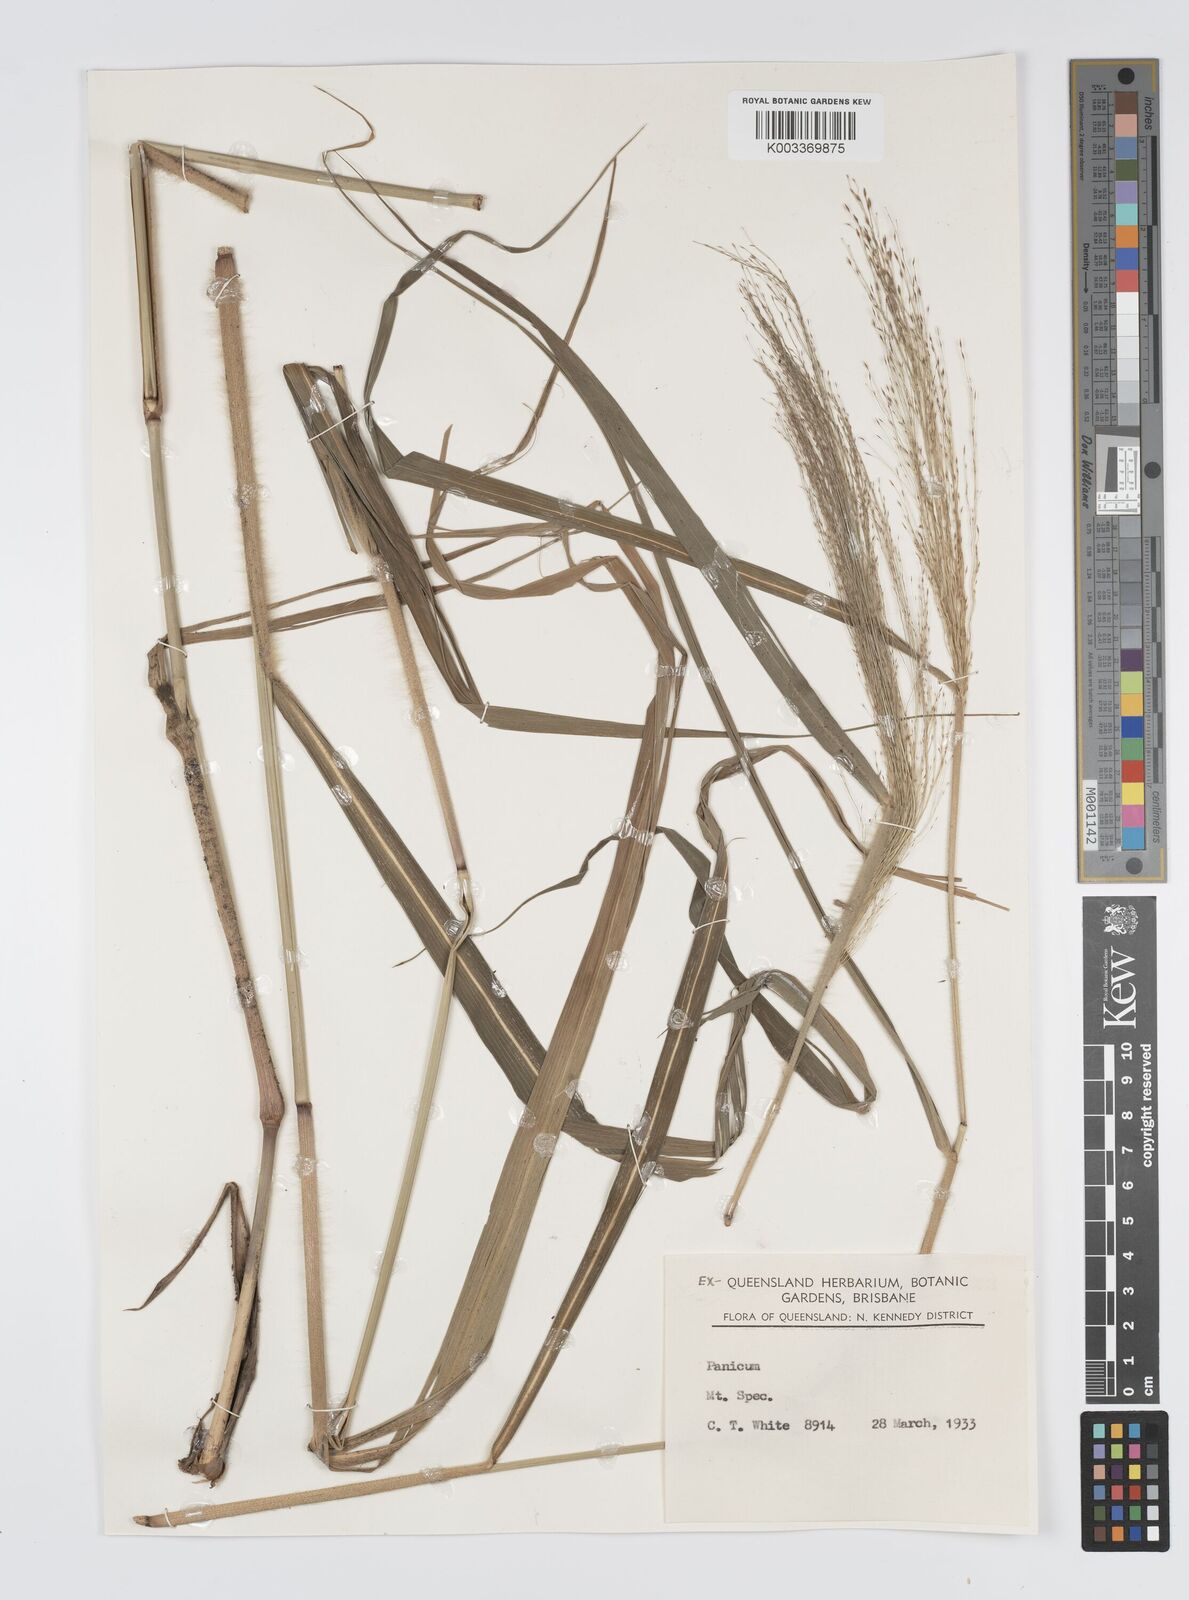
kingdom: Plantae
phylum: Tracheophyta
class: Liliopsida
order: Poales
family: Poaceae
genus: Panicum
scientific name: Panicum mitchellii
